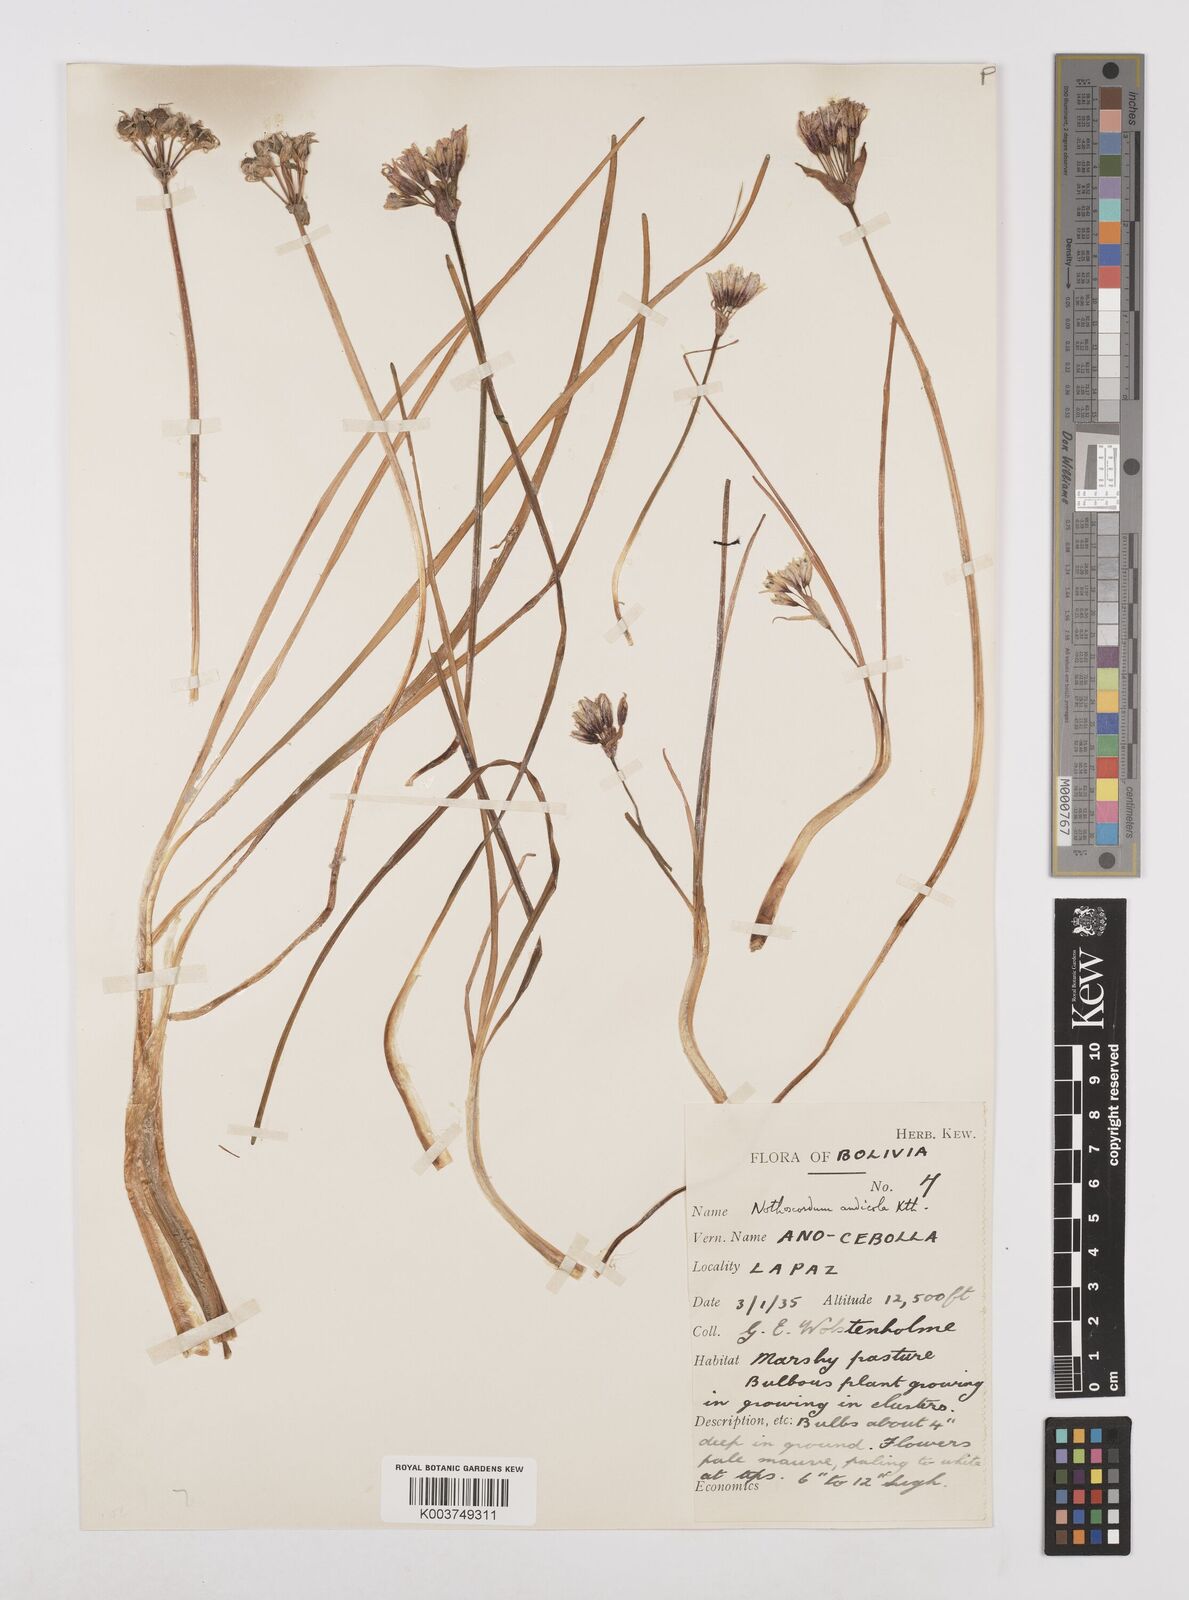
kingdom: Plantae
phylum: Tracheophyta
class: Liliopsida
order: Asparagales
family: Amaryllidaceae
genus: Nothoscordum
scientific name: Nothoscordum andicola
